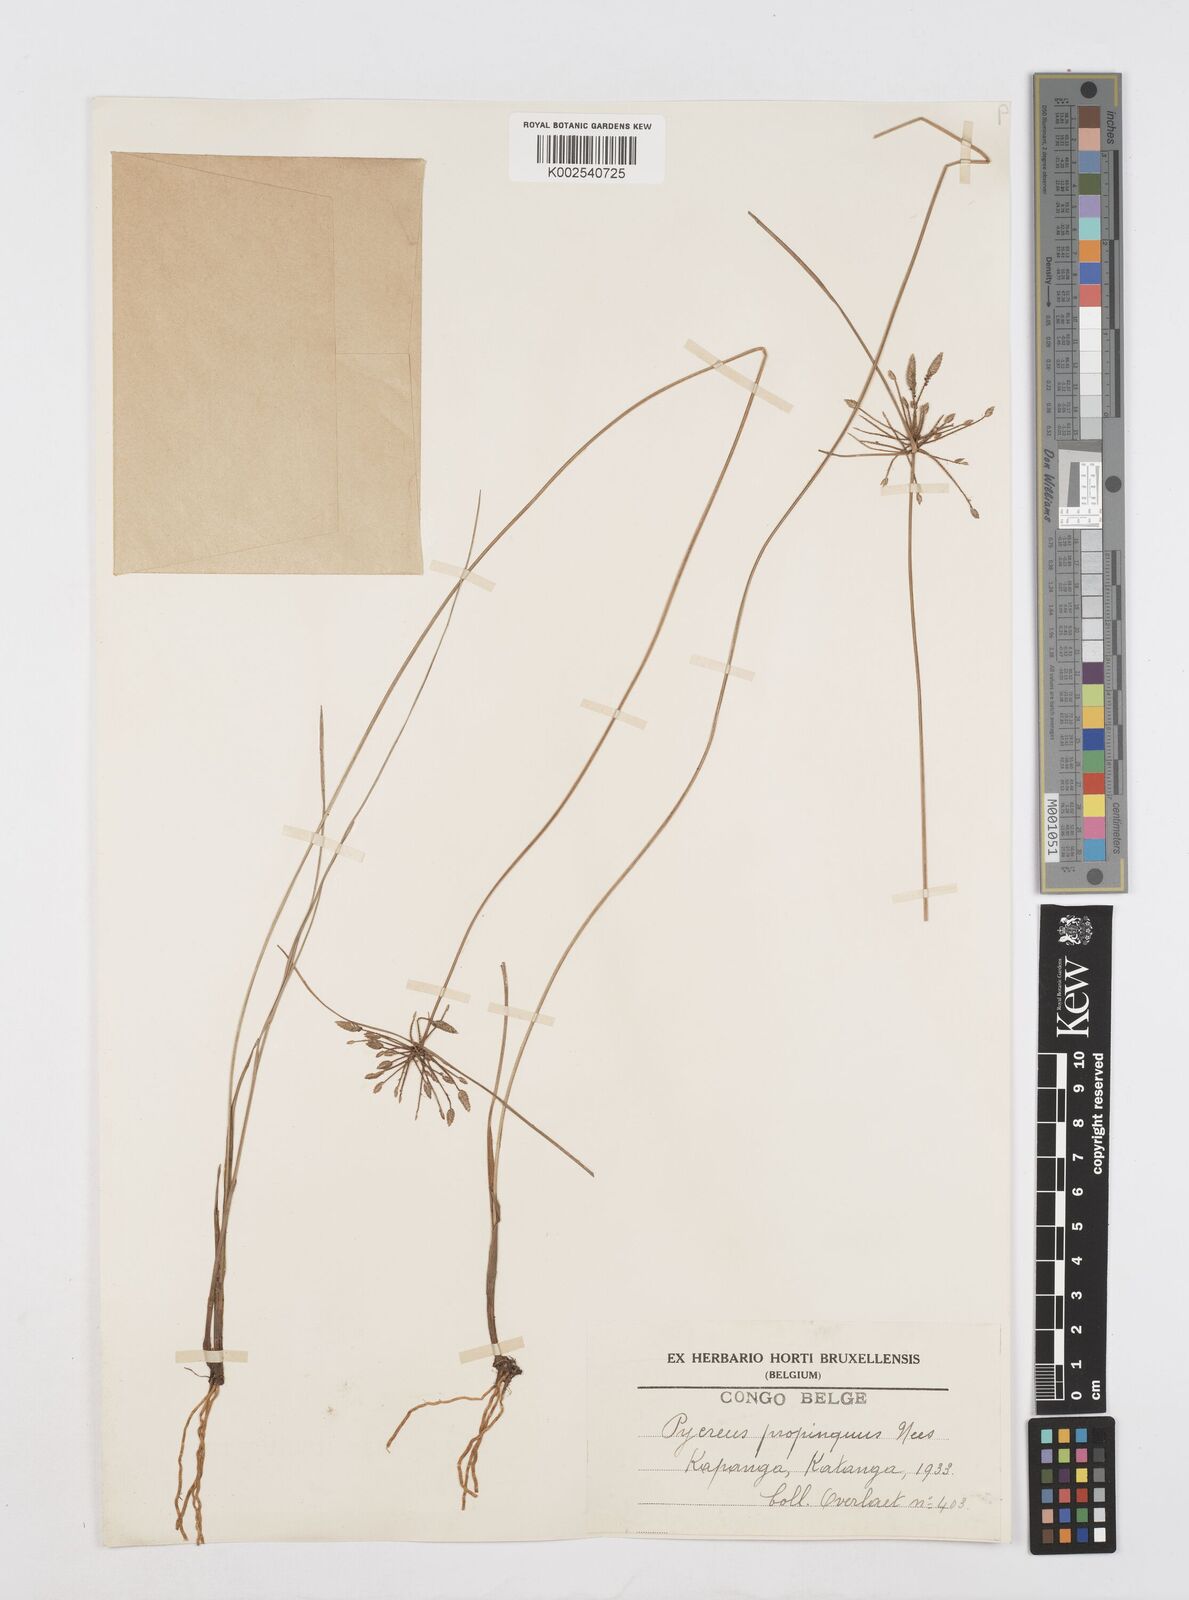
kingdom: Plantae
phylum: Tracheophyta
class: Liliopsida
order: Poales
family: Cyperaceae
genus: Cyperus
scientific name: Cyperus
